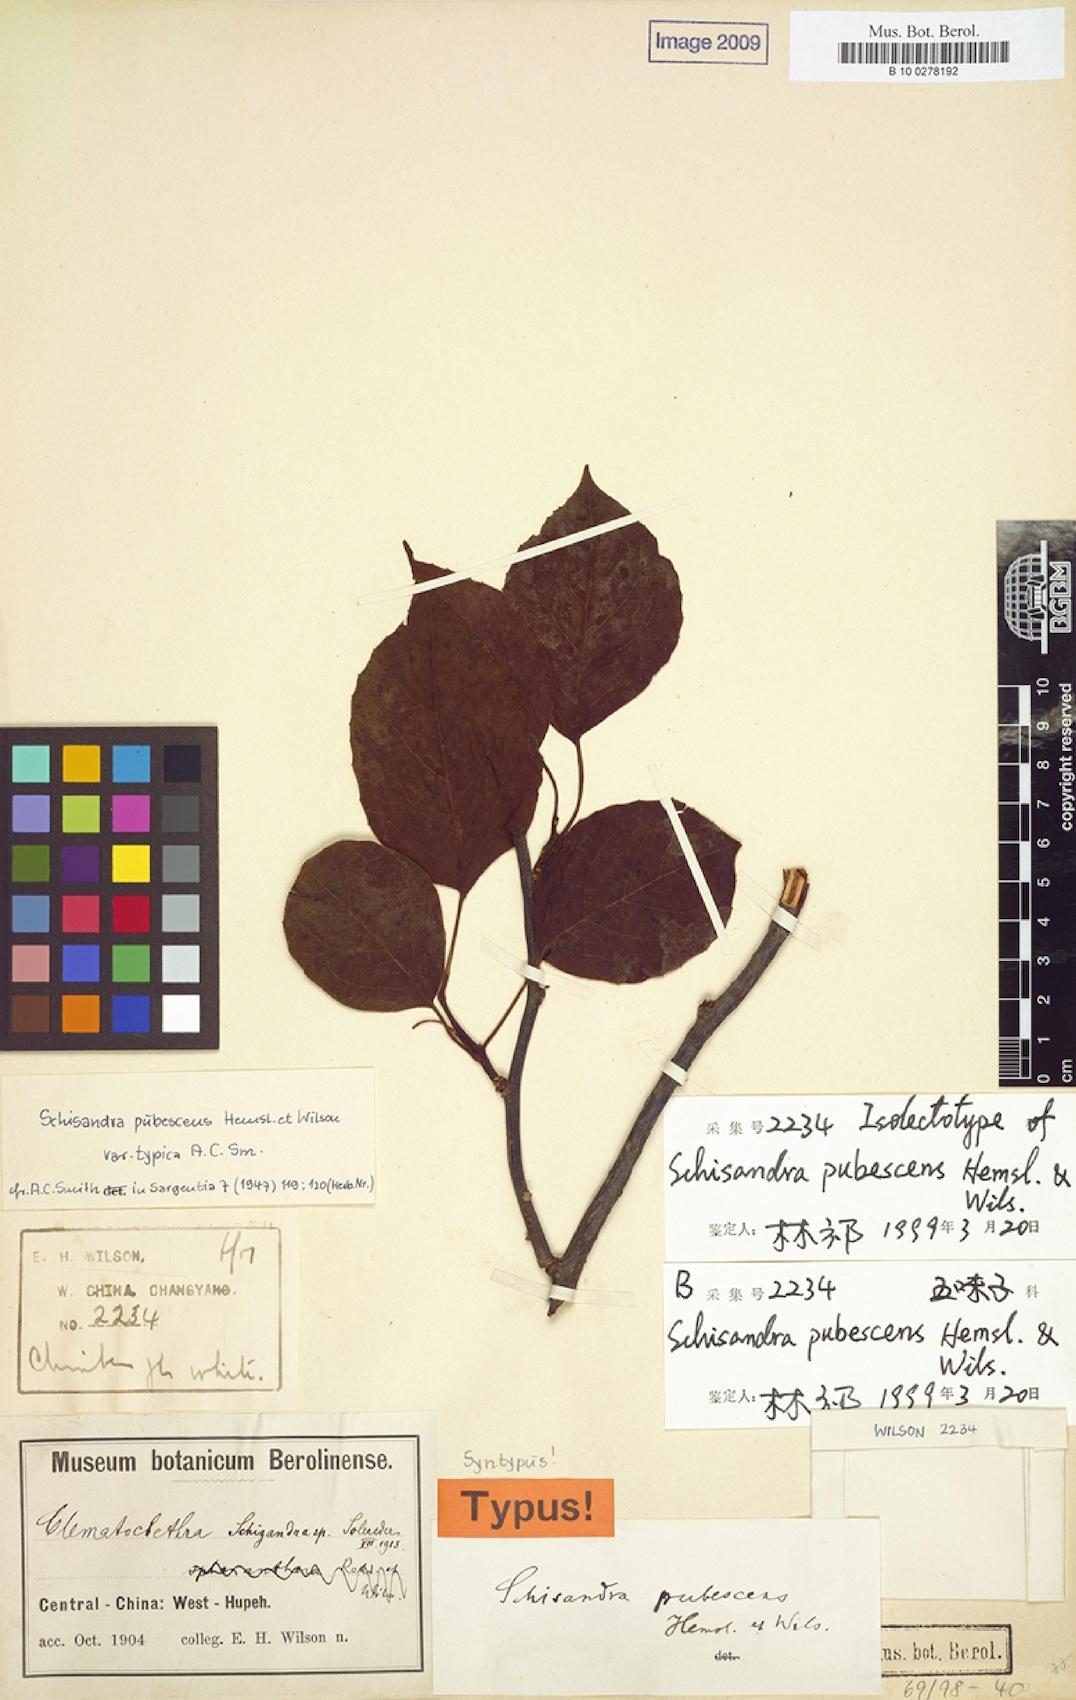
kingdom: Plantae
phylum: Tracheophyta
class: Magnoliopsida
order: Austrobaileyales
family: Schisandraceae
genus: Schisandra
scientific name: Schisandra pubescens
